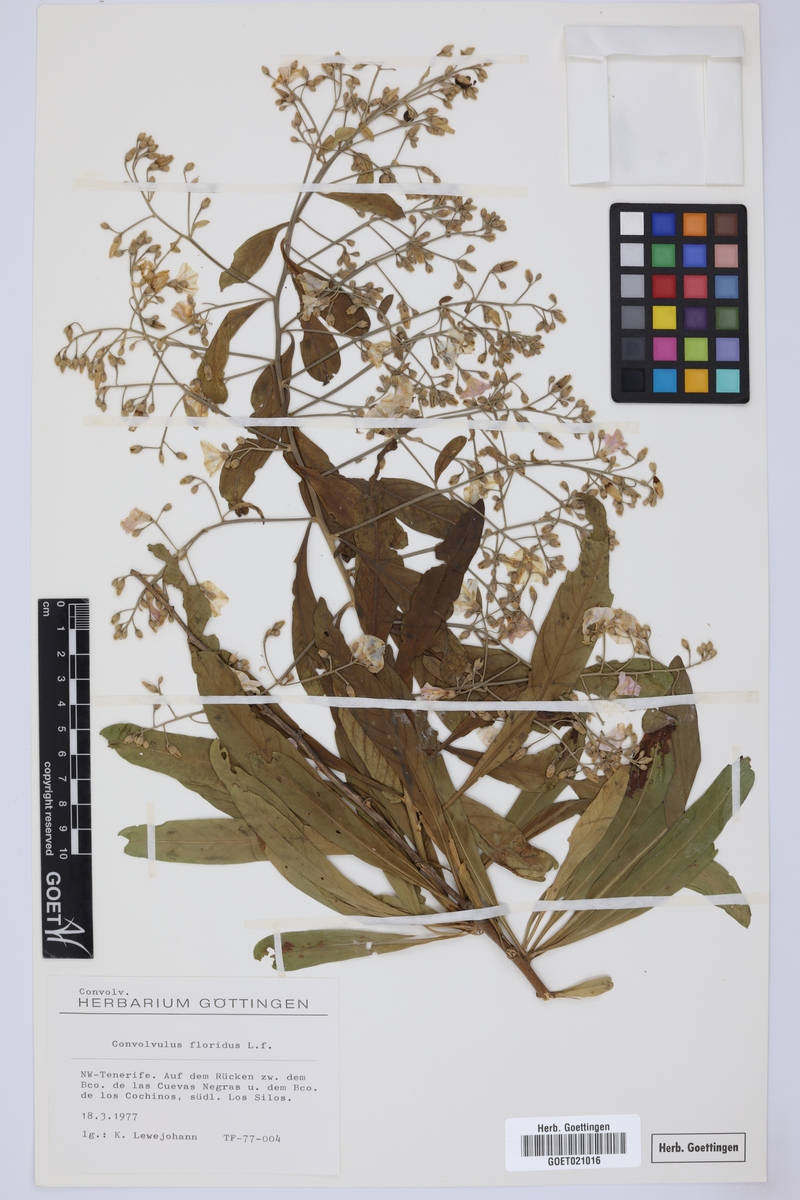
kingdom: Plantae
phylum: Tracheophyta
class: Magnoliopsida
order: Solanales
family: Convolvulaceae
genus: Convolvulus
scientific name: Convolvulus floridus
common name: Guadil
